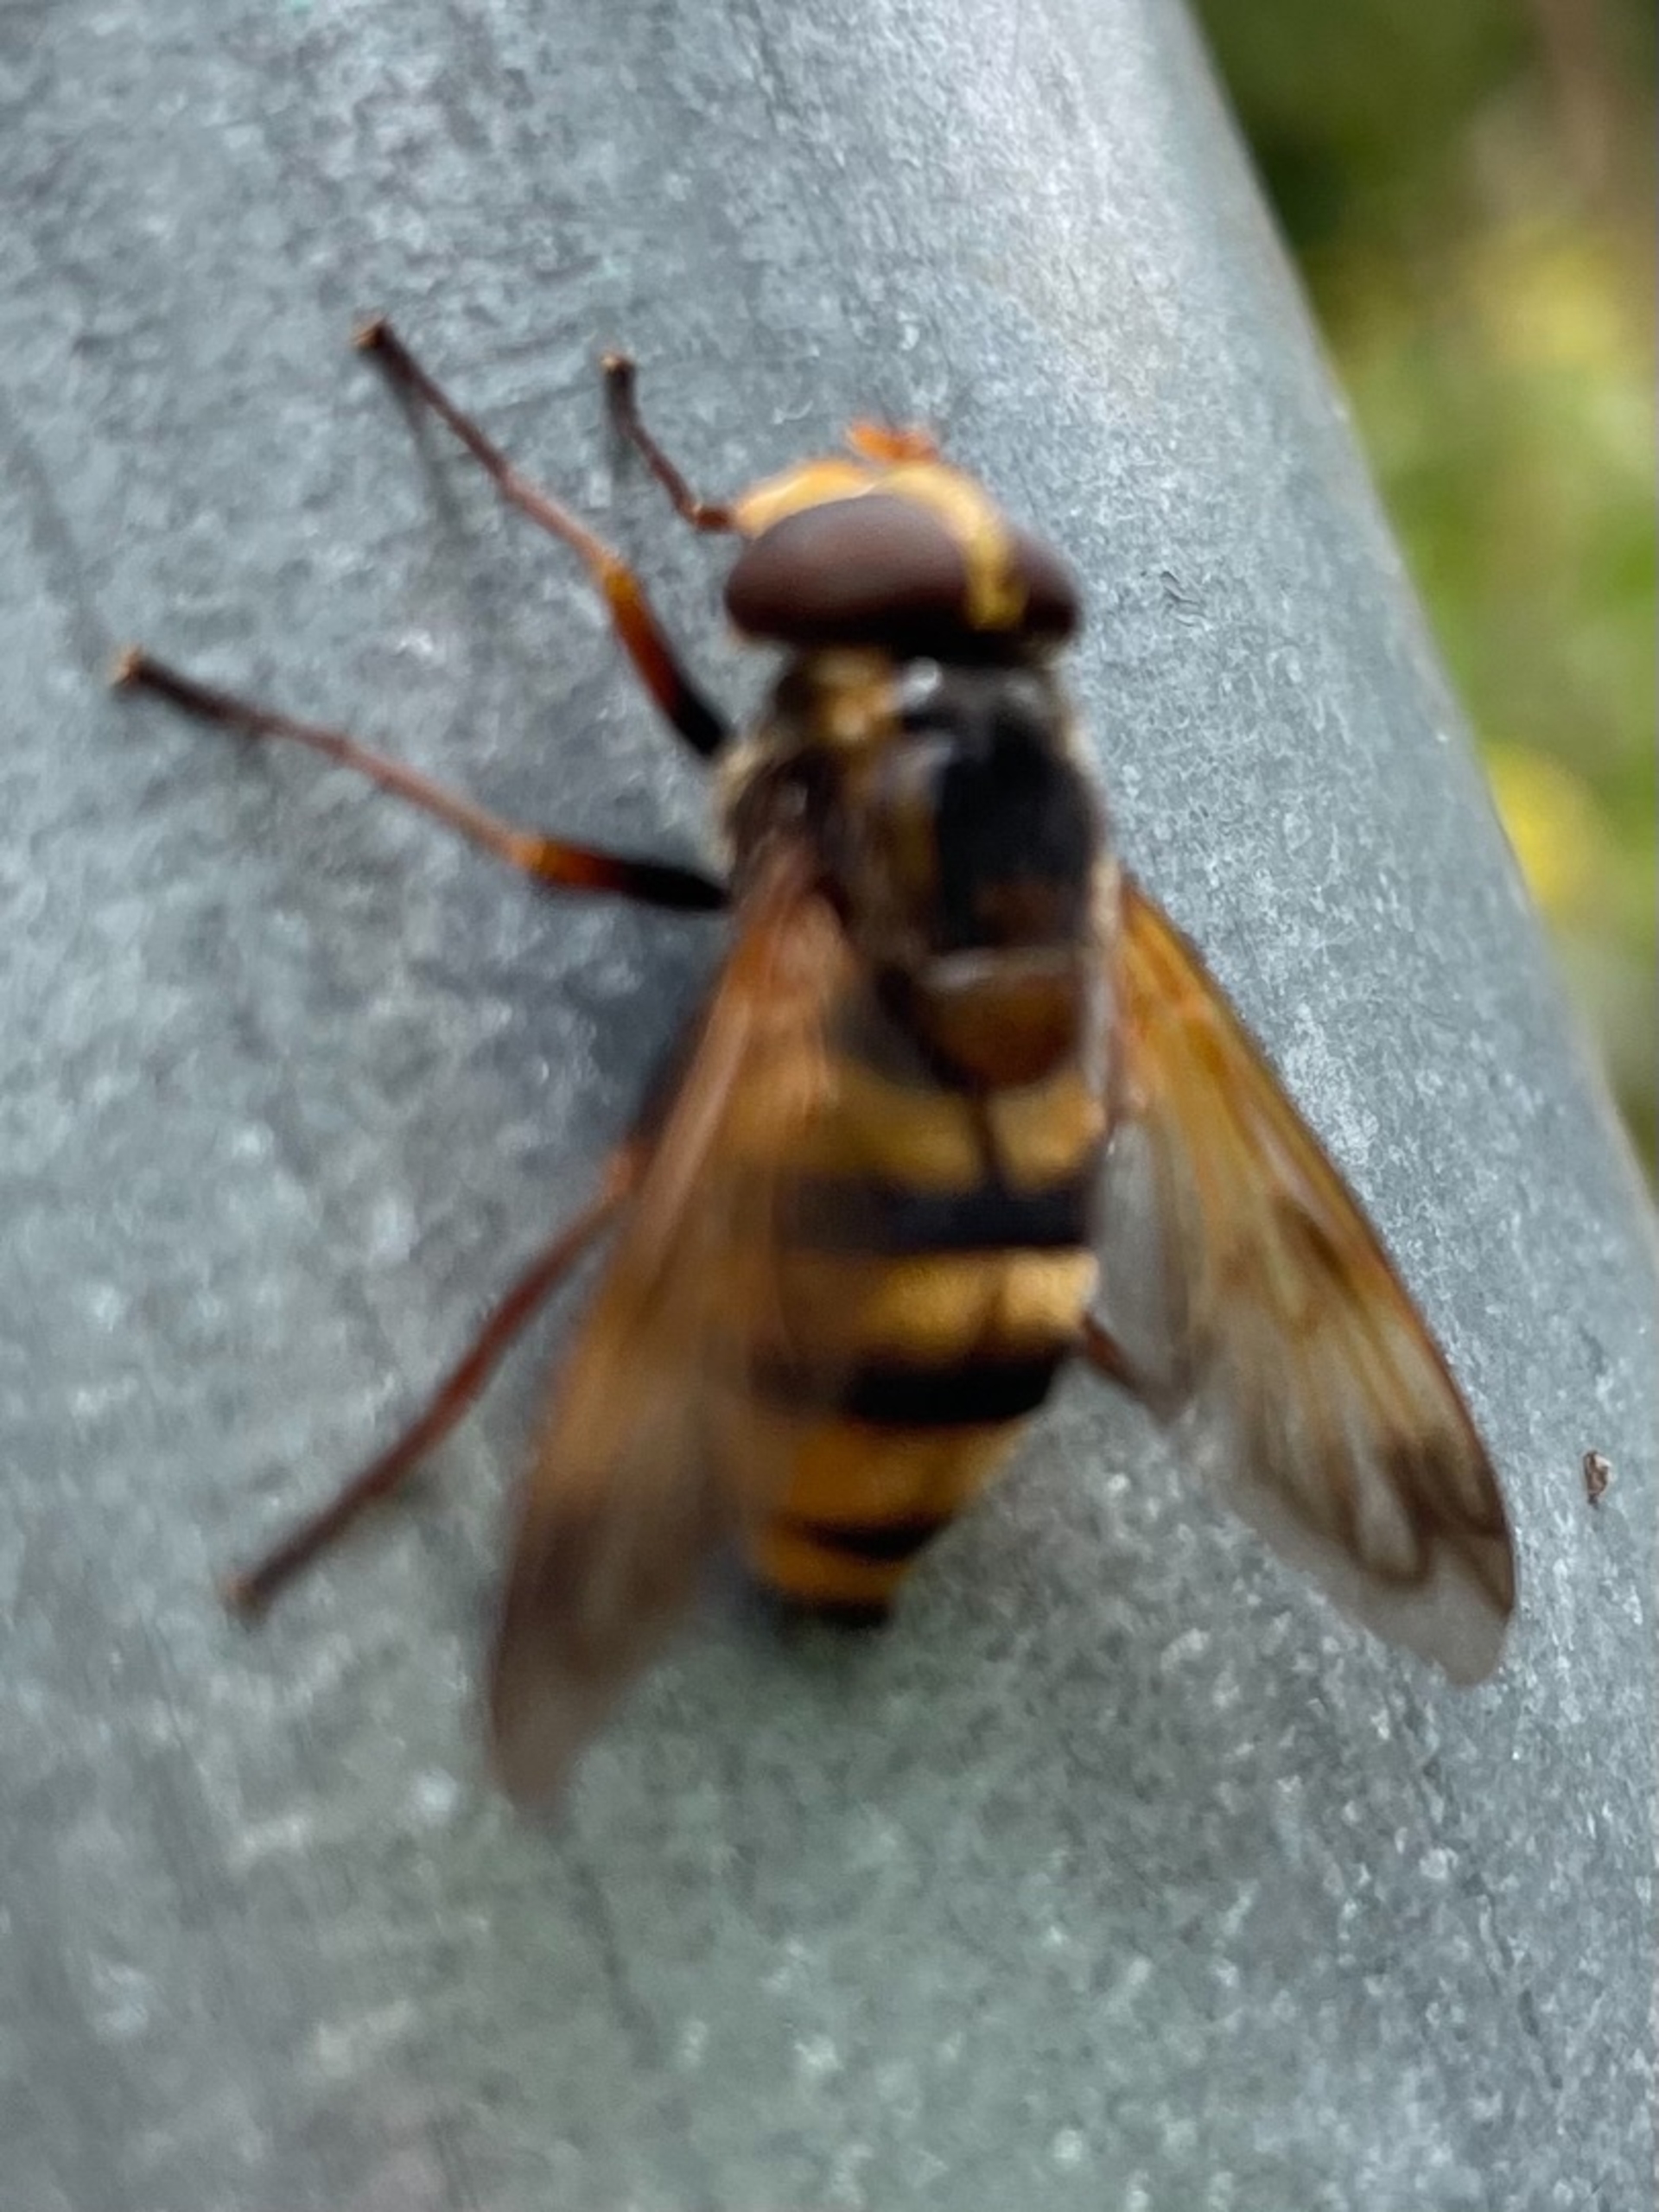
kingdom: Animalia
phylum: Arthropoda
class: Insecta
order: Diptera
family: Syrphidae
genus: Volucella
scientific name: Volucella inanis
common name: Gul humlesvirreflue
